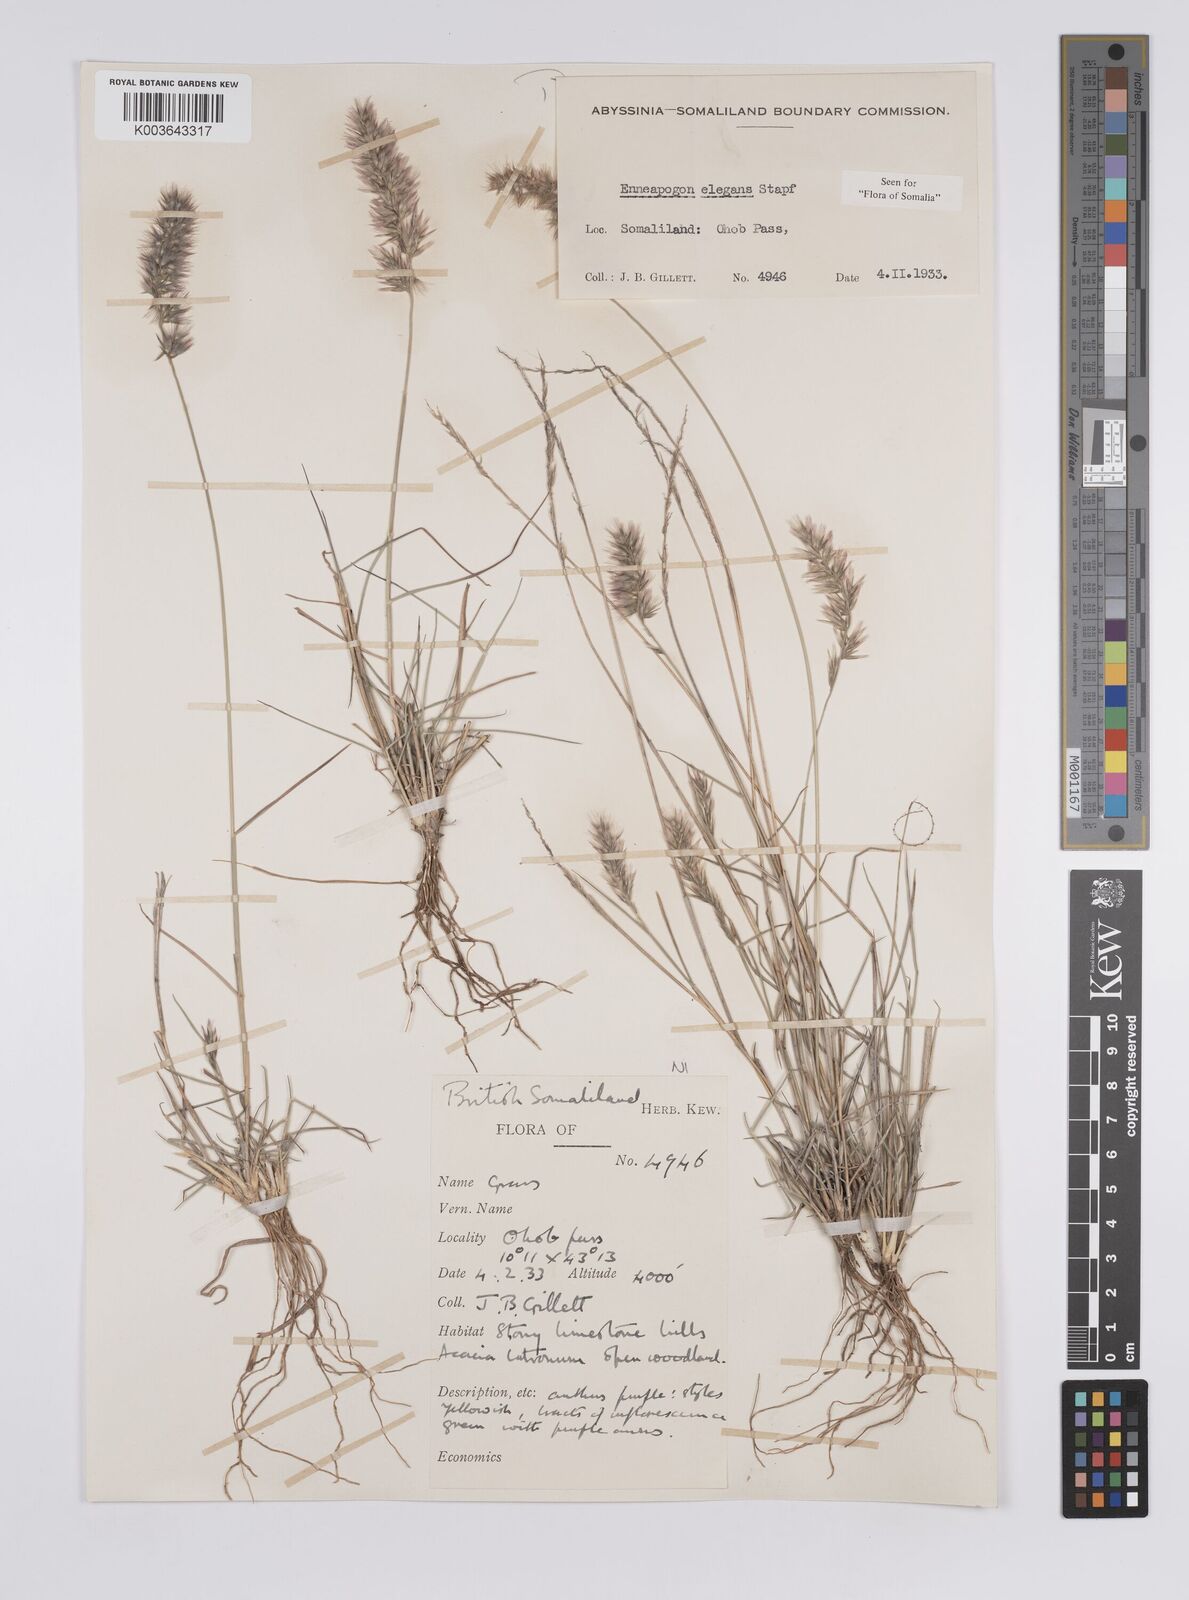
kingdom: Plantae
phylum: Tracheophyta
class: Liliopsida
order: Poales
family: Poaceae
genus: Enneapogon
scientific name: Enneapogon persicus
